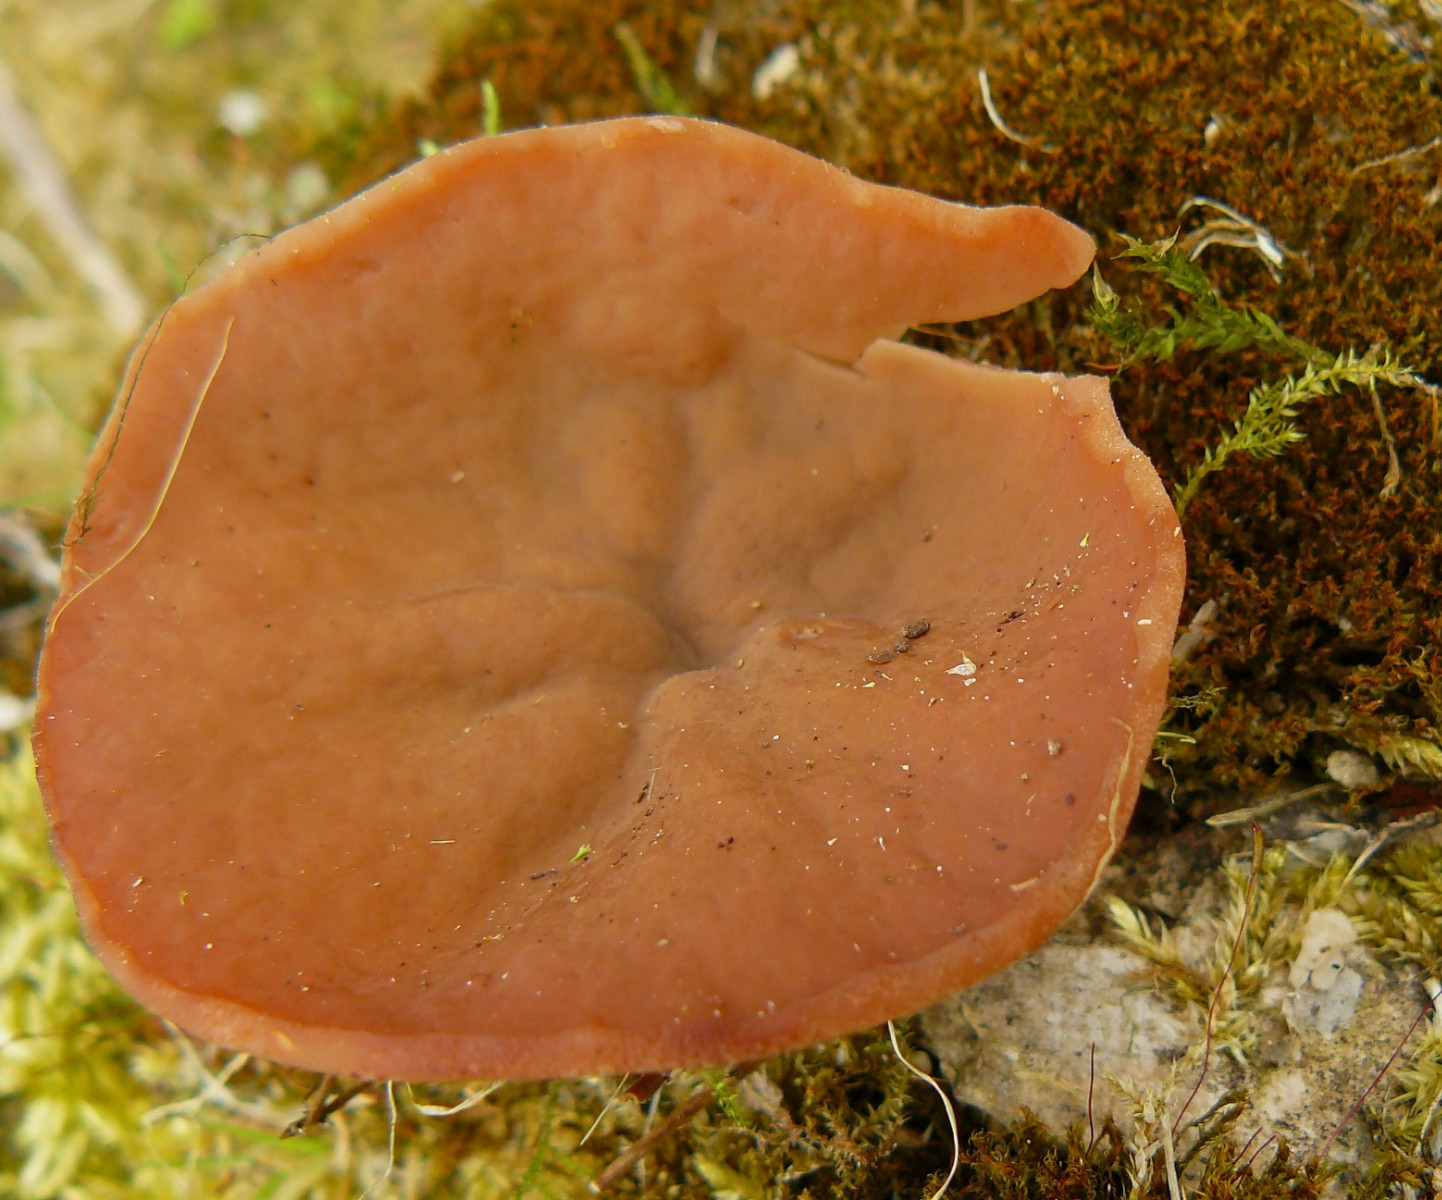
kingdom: Fungi
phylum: Ascomycota
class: Pezizomycetes
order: Pezizales
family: Discinaceae
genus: Discina
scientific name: Discina ancilis
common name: udbredt stenmorkel
